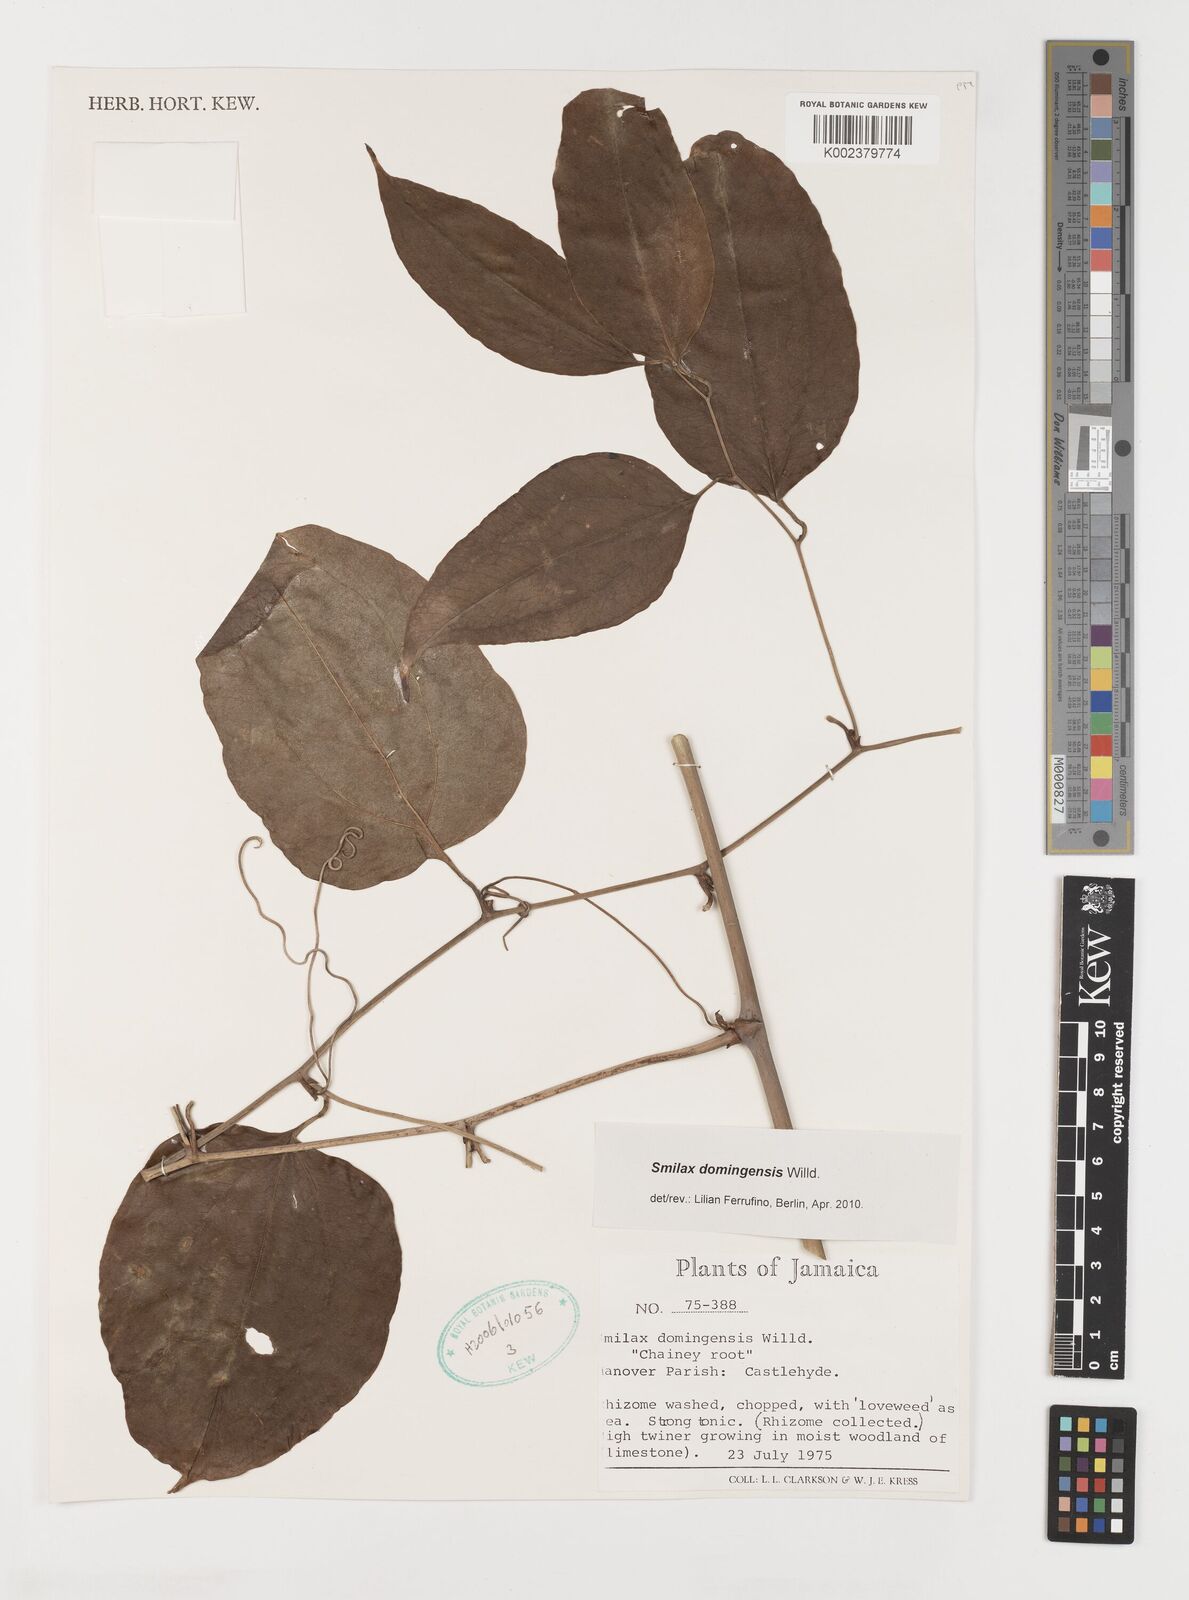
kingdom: Plantae
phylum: Tracheophyta
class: Liliopsida
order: Liliales
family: Smilacaceae
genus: Smilax
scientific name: Smilax domingensis
